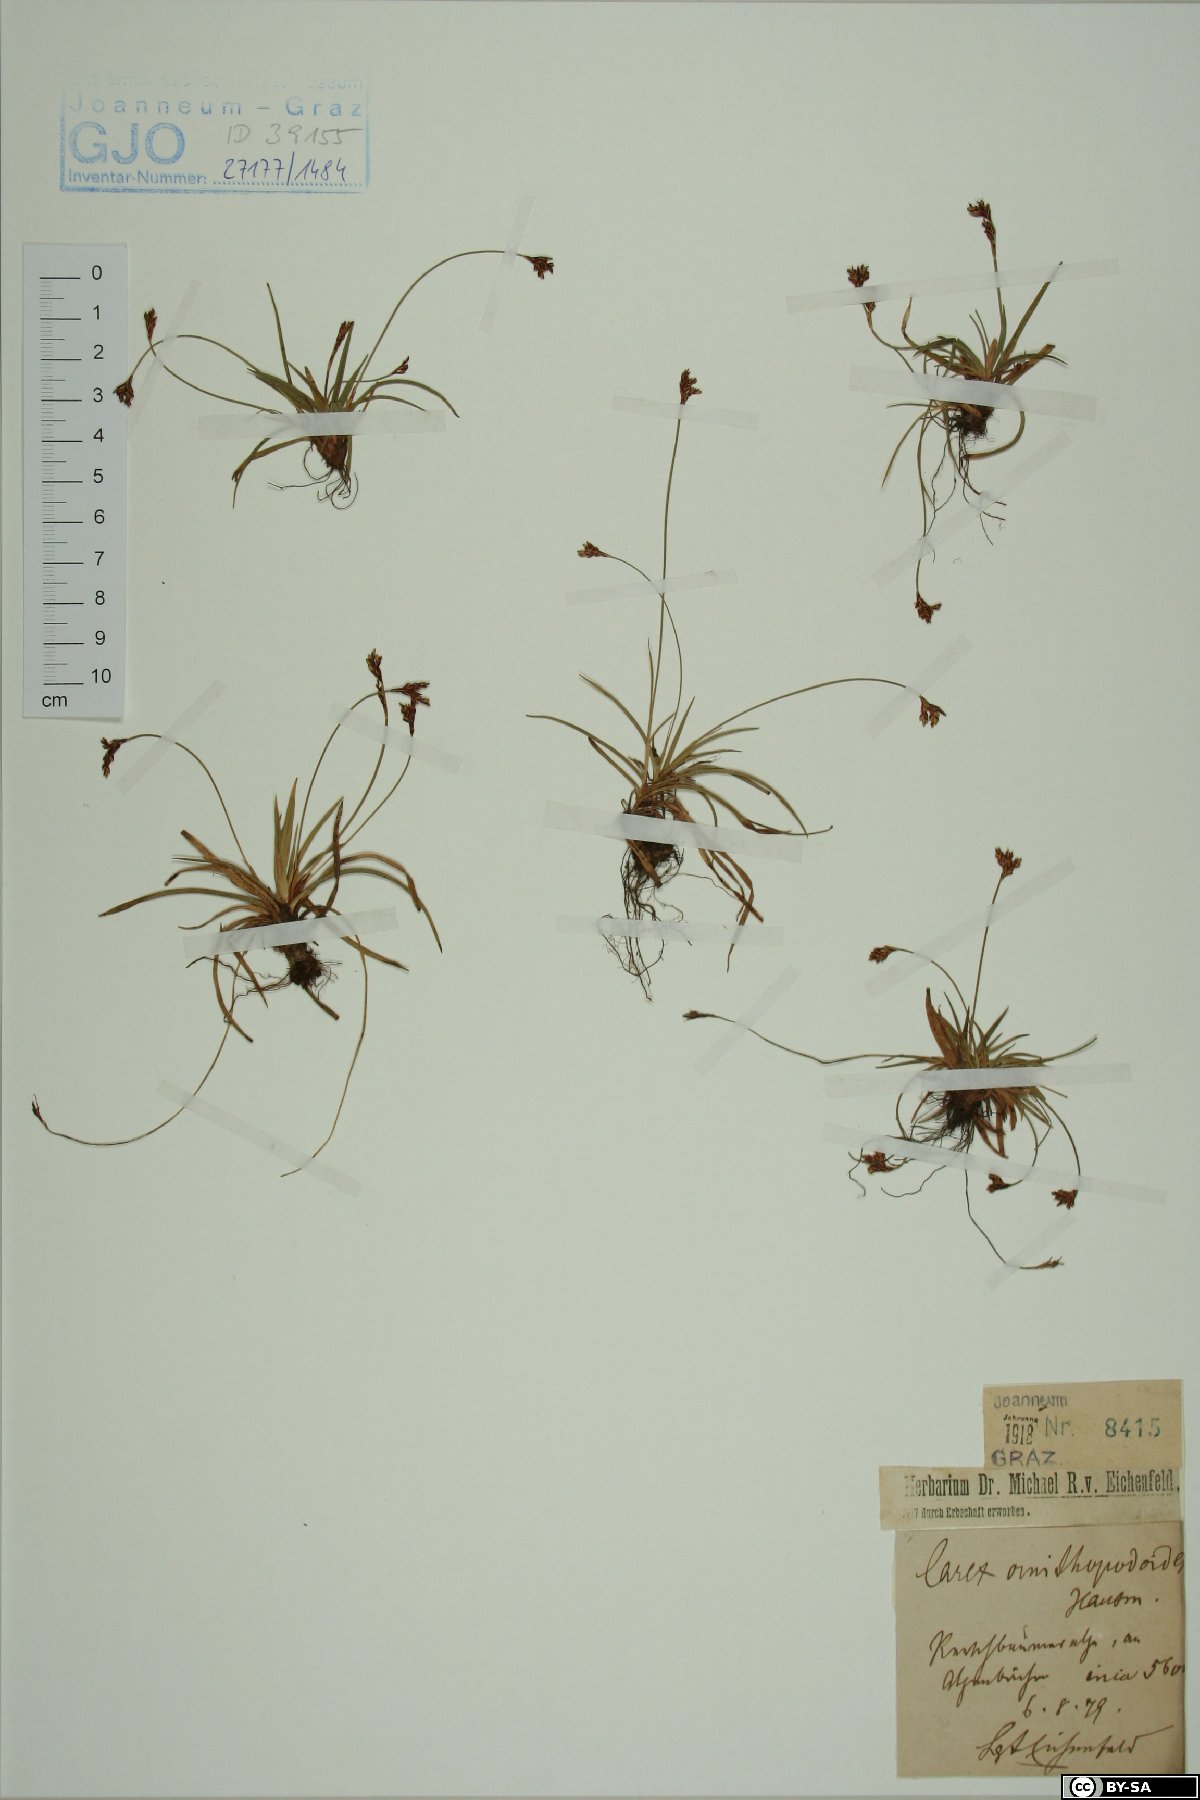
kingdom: Plantae
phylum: Tracheophyta
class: Liliopsida
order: Poales
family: Cyperaceae
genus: Carex
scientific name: Carex ornithopoda
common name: Bird's-foot sedge
